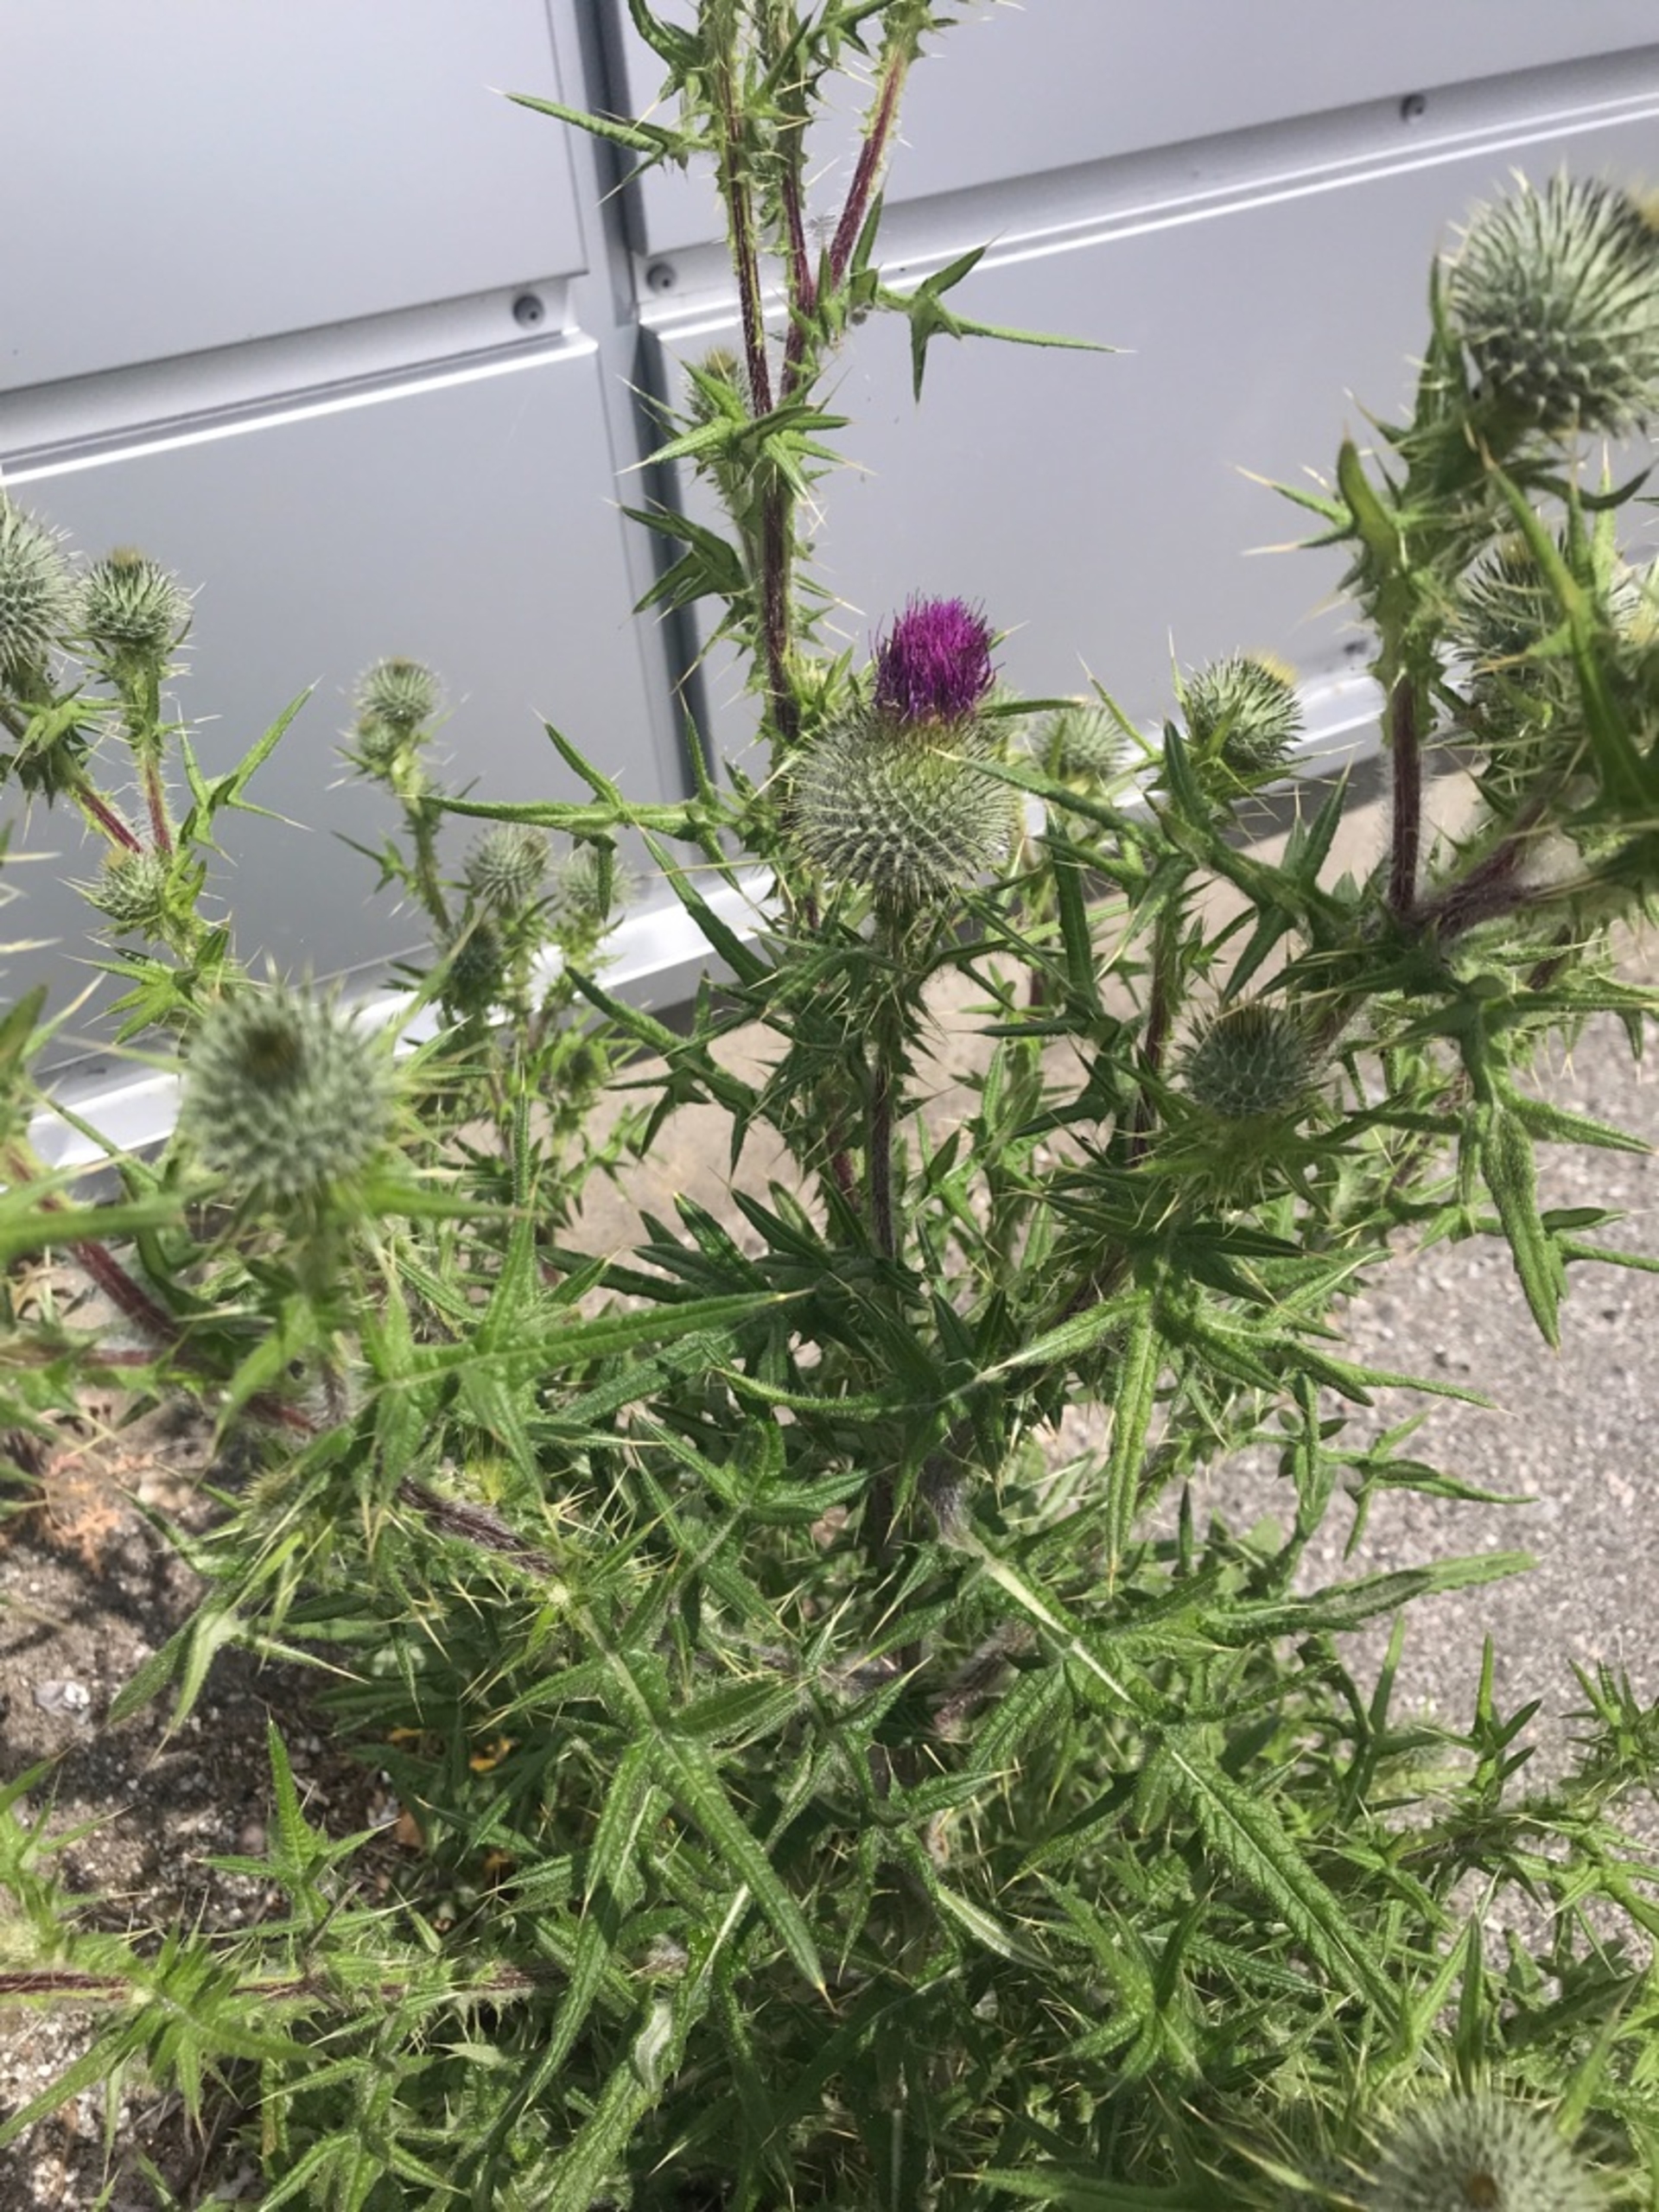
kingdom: Plantae
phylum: Tracheophyta
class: Magnoliopsida
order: Asterales
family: Asteraceae
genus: Cirsium
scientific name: Cirsium vulgare
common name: Horse-tidsel
